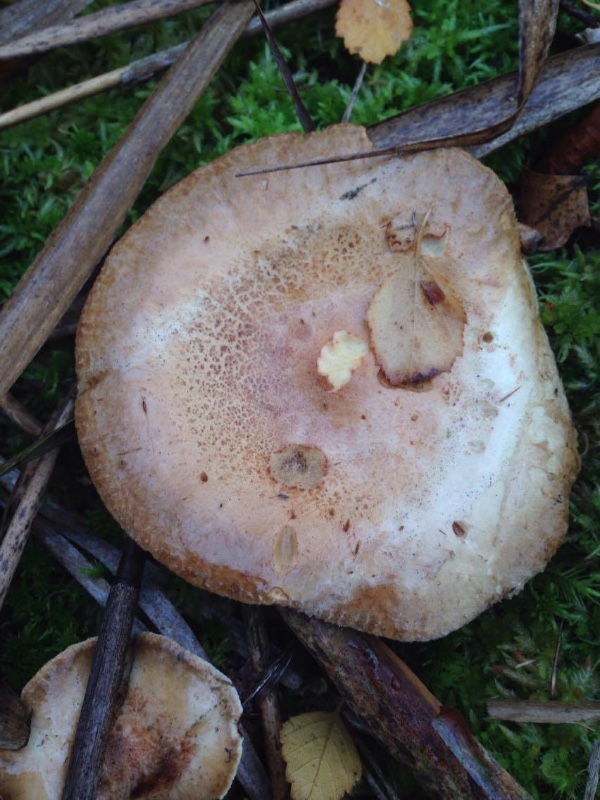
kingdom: Fungi
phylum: Basidiomycota
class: Agaricomycetes
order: Boletales
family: Paxillaceae
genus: Paxillus
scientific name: Paxillus involutus
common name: almindelig netbladhat
